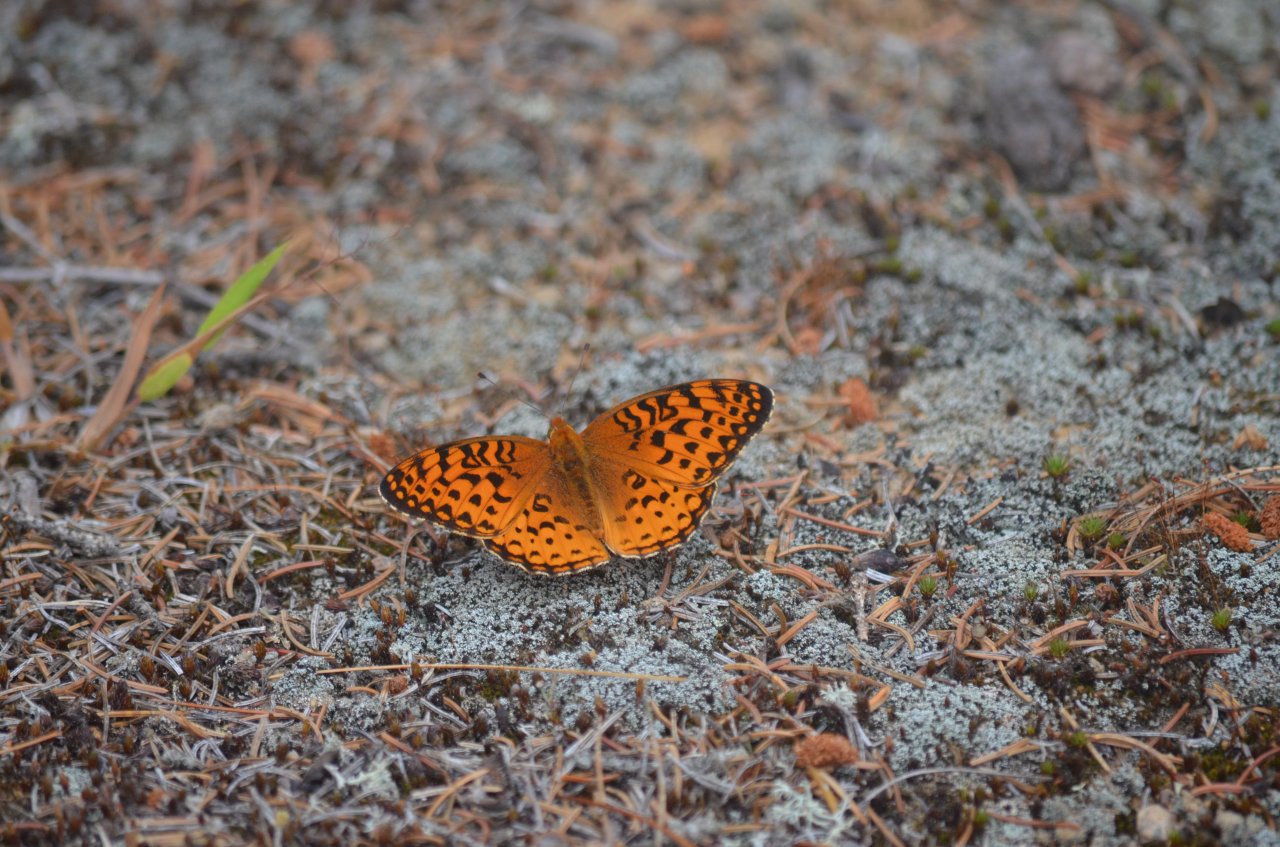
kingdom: Animalia
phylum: Arthropoda
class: Insecta
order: Lepidoptera
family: Nymphalidae
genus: Speyeria
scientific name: Speyeria aphrodite
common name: Aphrodite Fritillary
